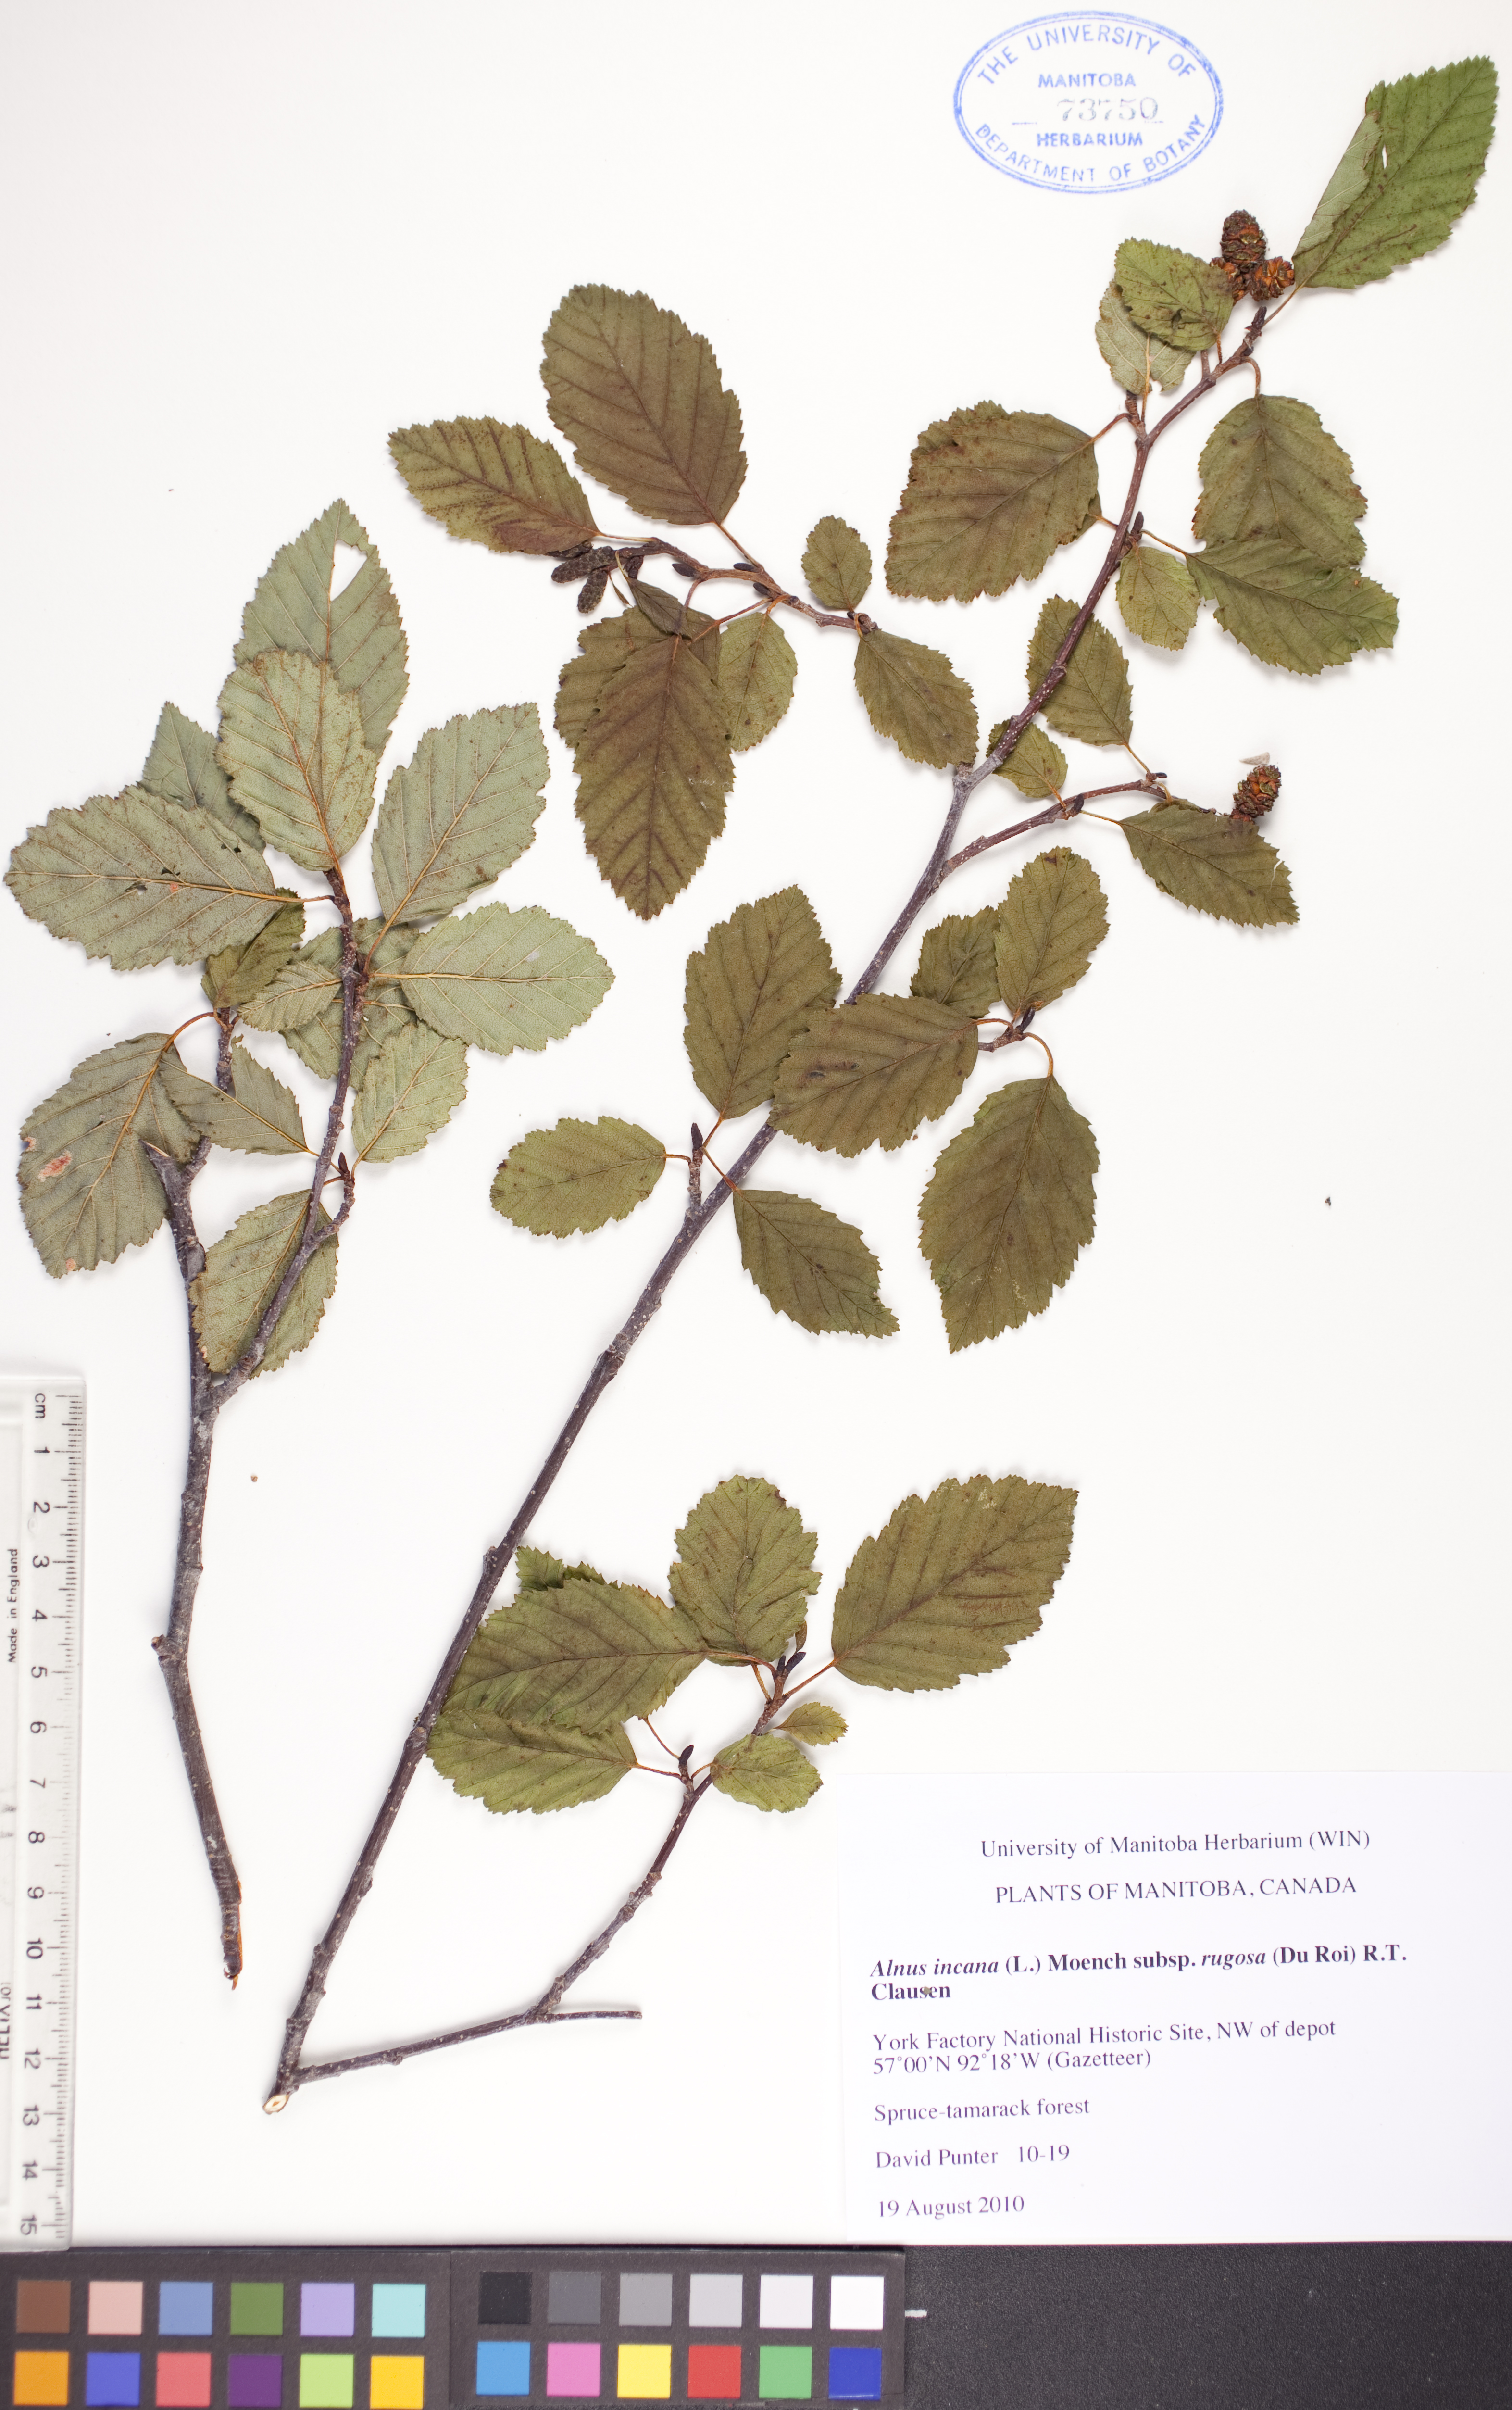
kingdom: Plantae
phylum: Tracheophyta
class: Magnoliopsida
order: Fagales
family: Betulaceae
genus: Alnus
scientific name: Alnus incana
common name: Grey alder
